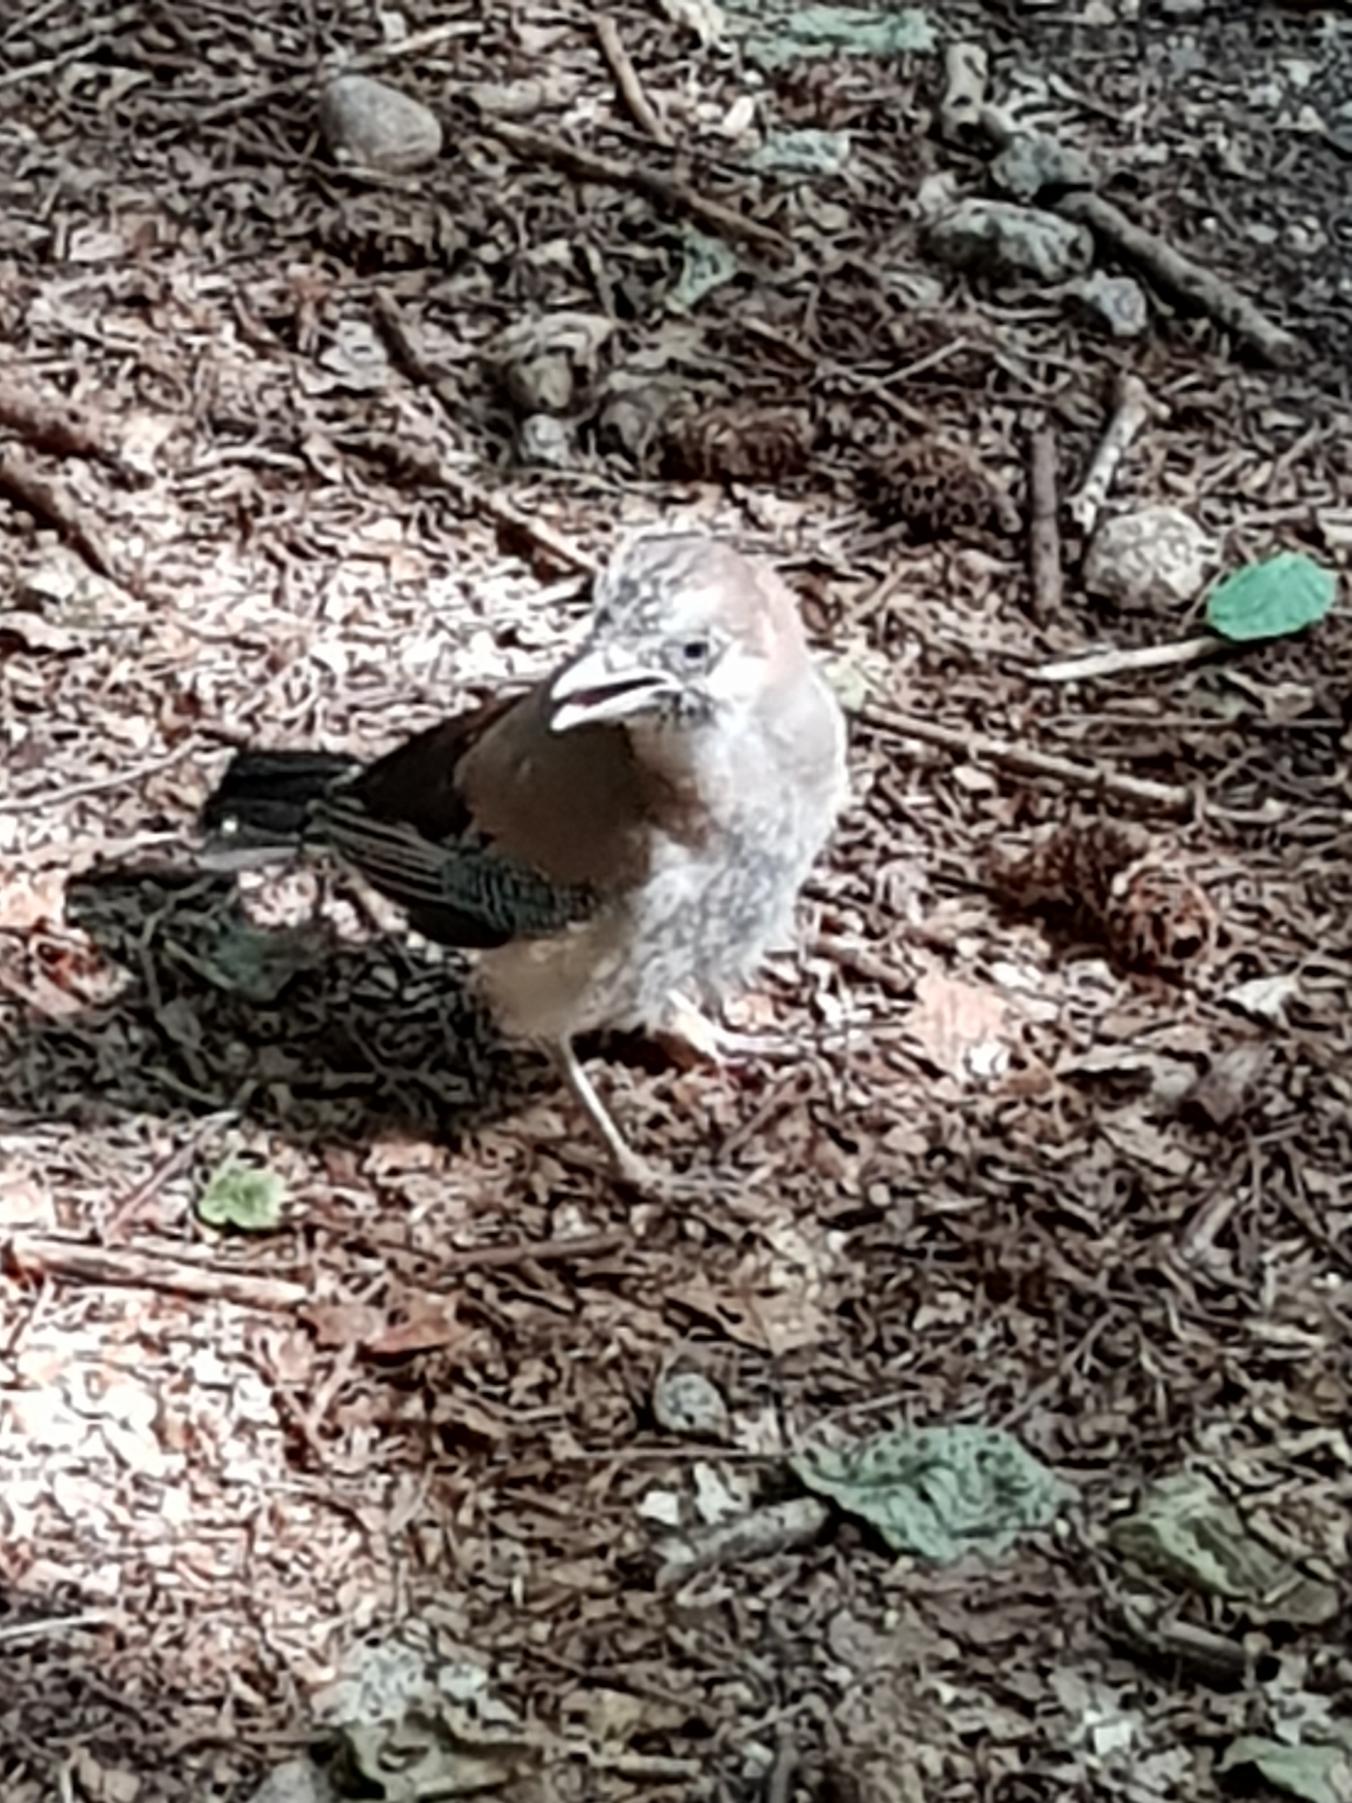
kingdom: Animalia
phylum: Chordata
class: Aves
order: Passeriformes
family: Corvidae
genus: Garrulus
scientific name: Garrulus glandarius
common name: Skovskade
